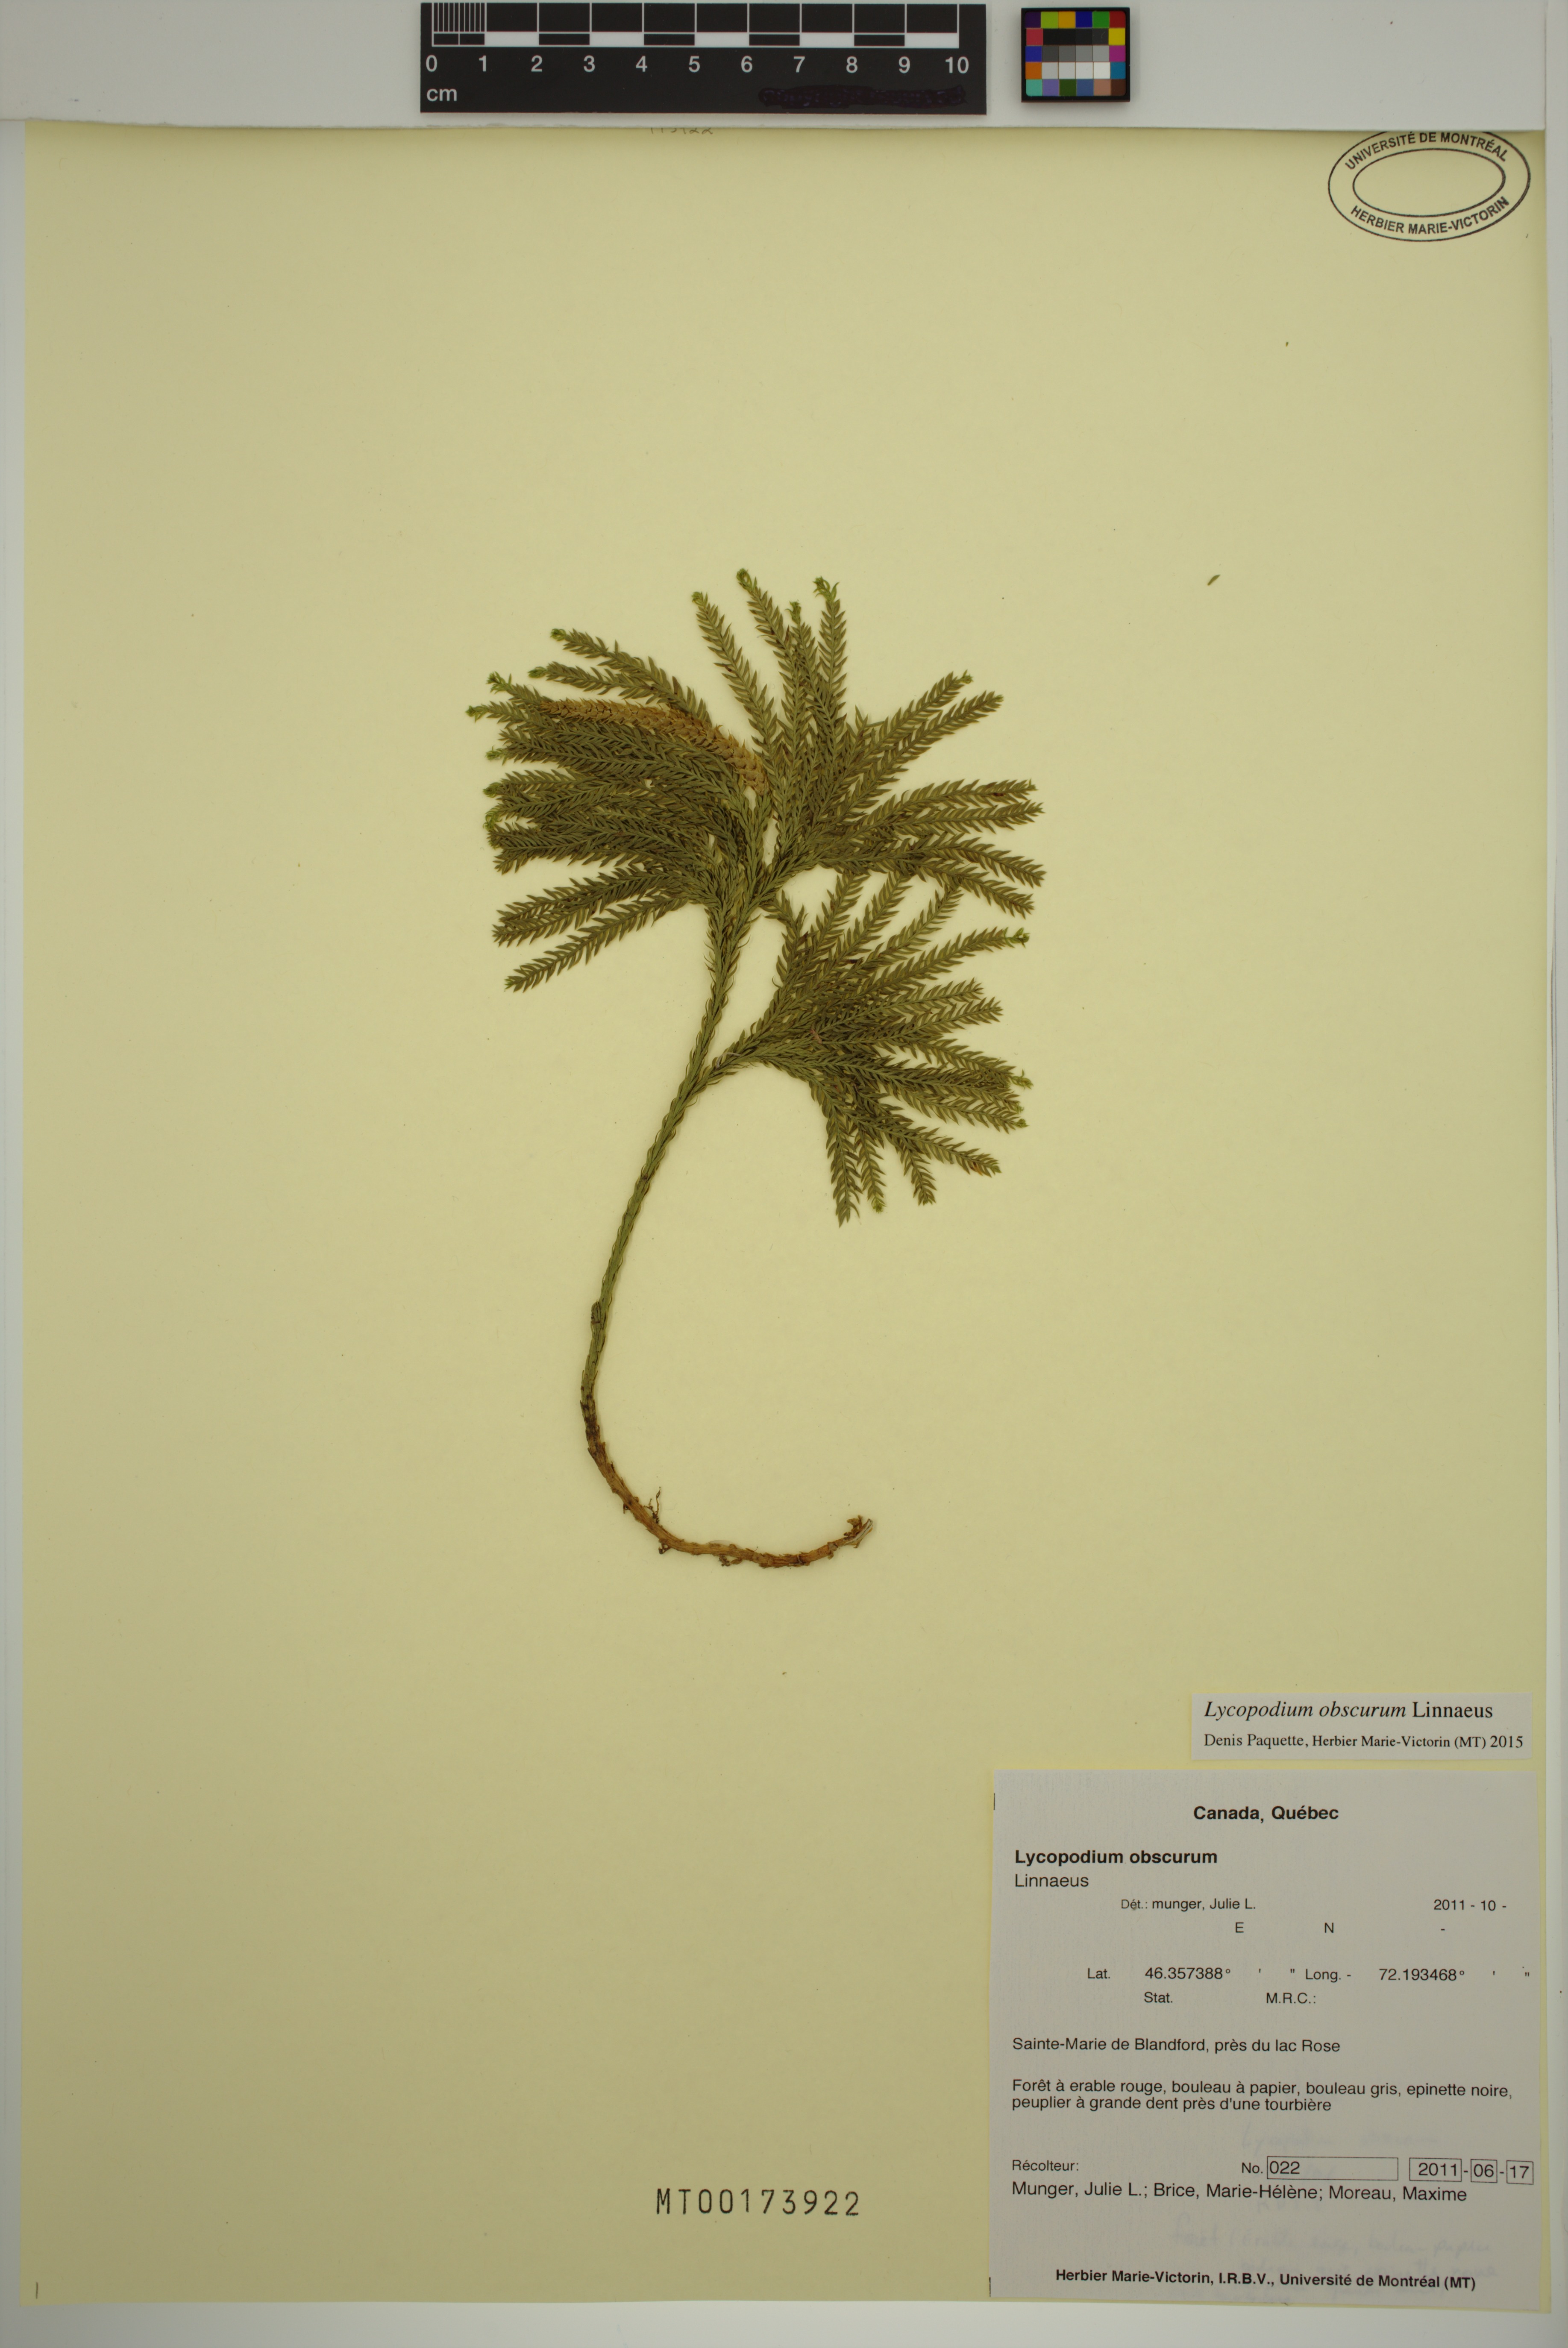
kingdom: Plantae
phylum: Tracheophyta
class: Lycopodiopsida
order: Lycopodiales
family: Lycopodiaceae
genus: Dendrolycopodium
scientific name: Dendrolycopodium obscurum
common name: Common ground-pine
